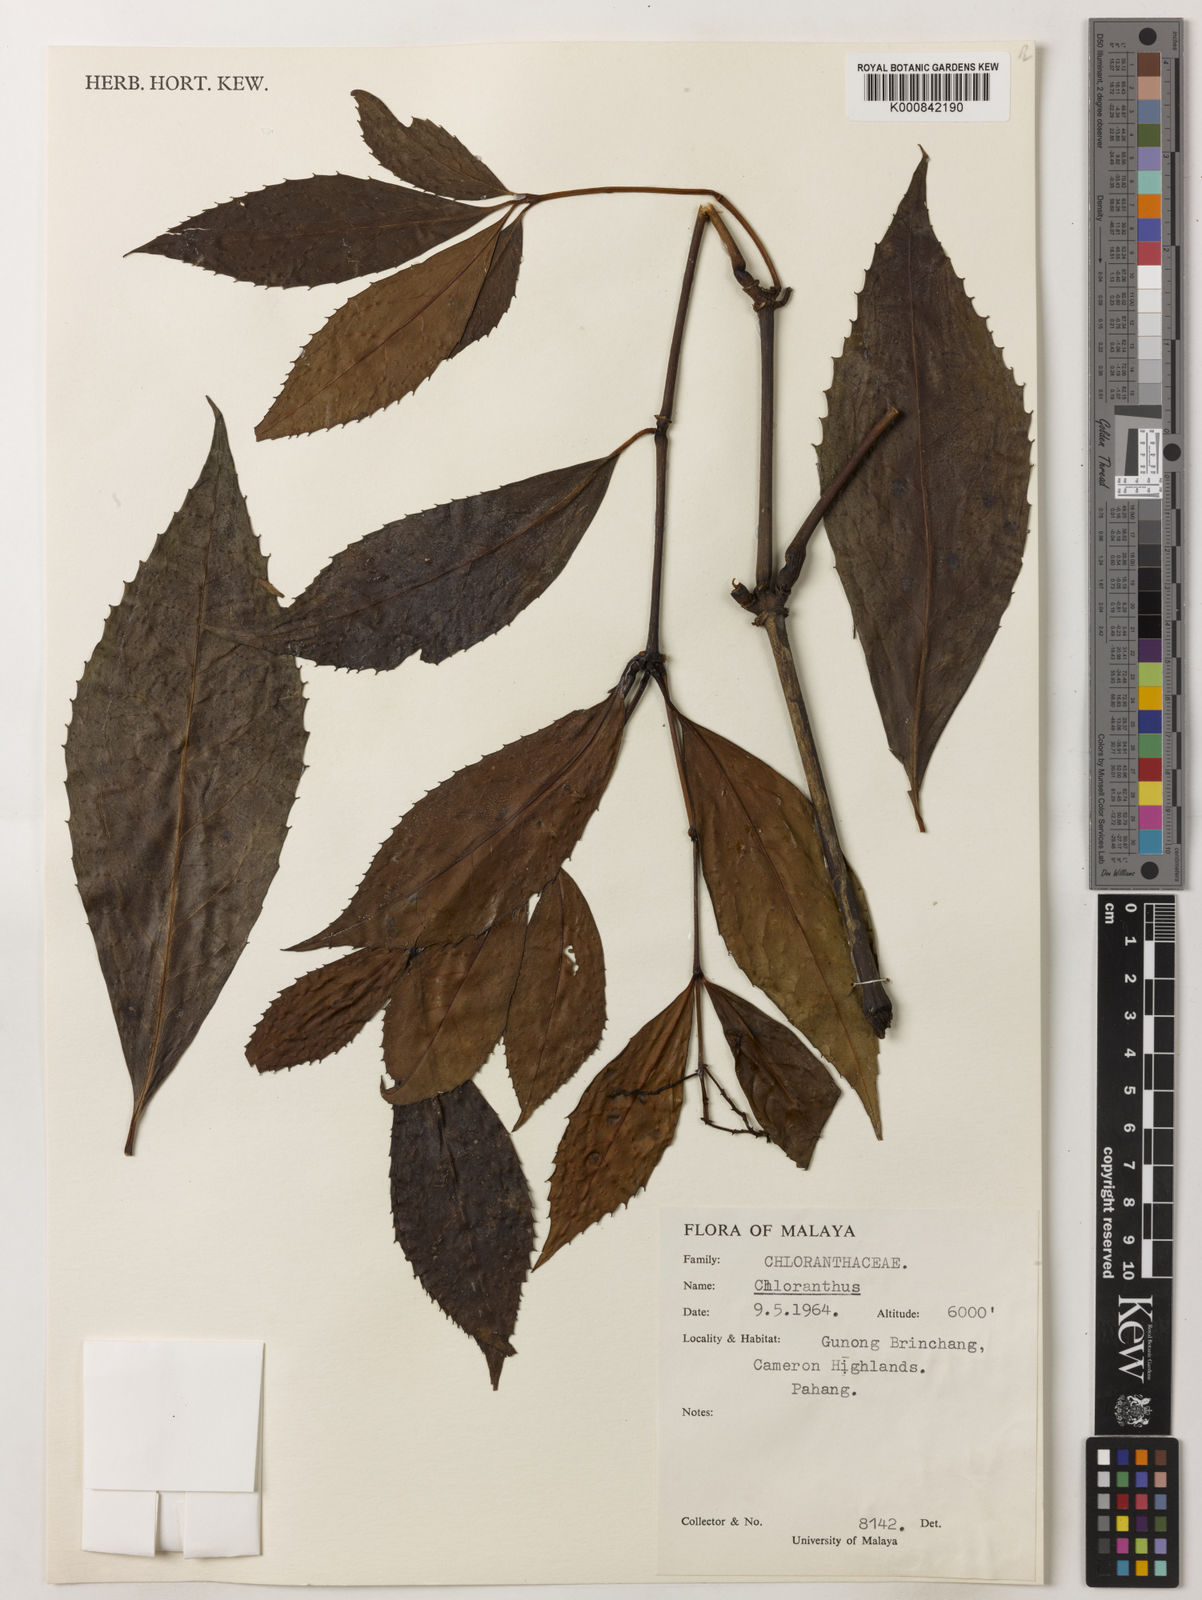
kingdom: Plantae
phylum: Tracheophyta
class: Magnoliopsida
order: Chloranthales
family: Chloranthaceae
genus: Sarcandra
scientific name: Sarcandra glabra
